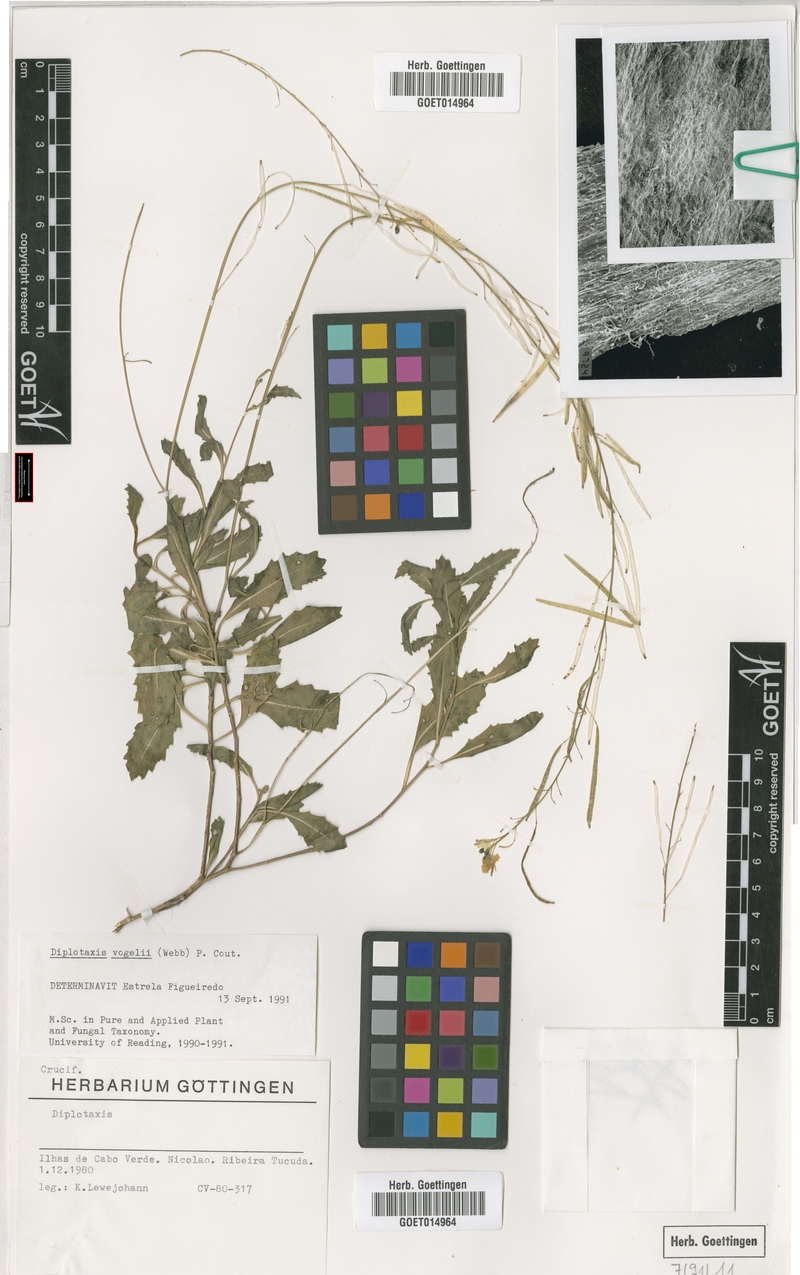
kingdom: Plantae
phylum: Tracheophyta
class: Magnoliopsida
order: Brassicales
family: Brassicaceae
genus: Diplotaxis
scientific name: Diplotaxis vogelii
